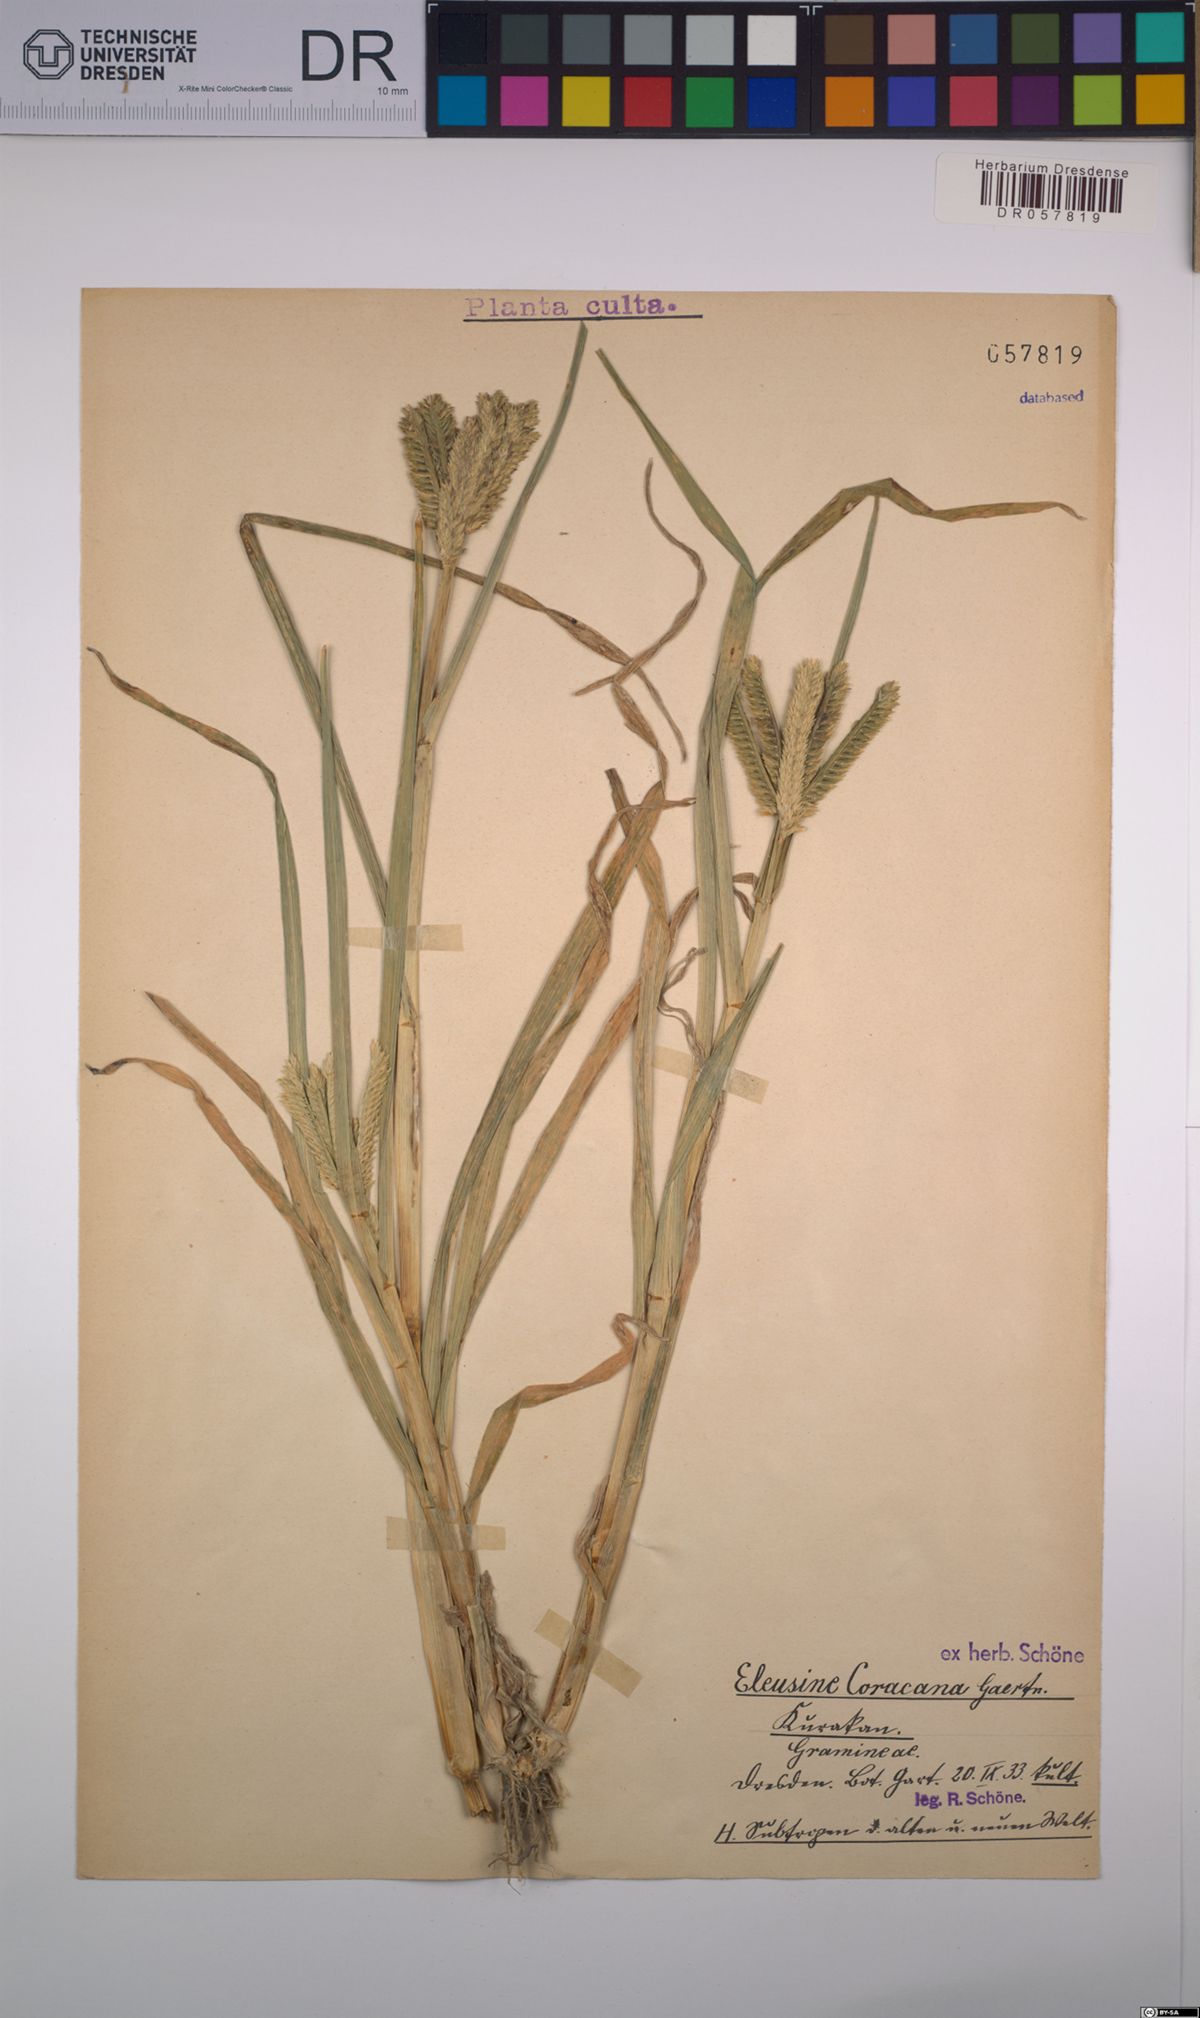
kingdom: Plantae
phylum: Tracheophyta
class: Liliopsida
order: Poales
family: Poaceae
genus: Eleusine
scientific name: Eleusine coracana
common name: Finger millet
